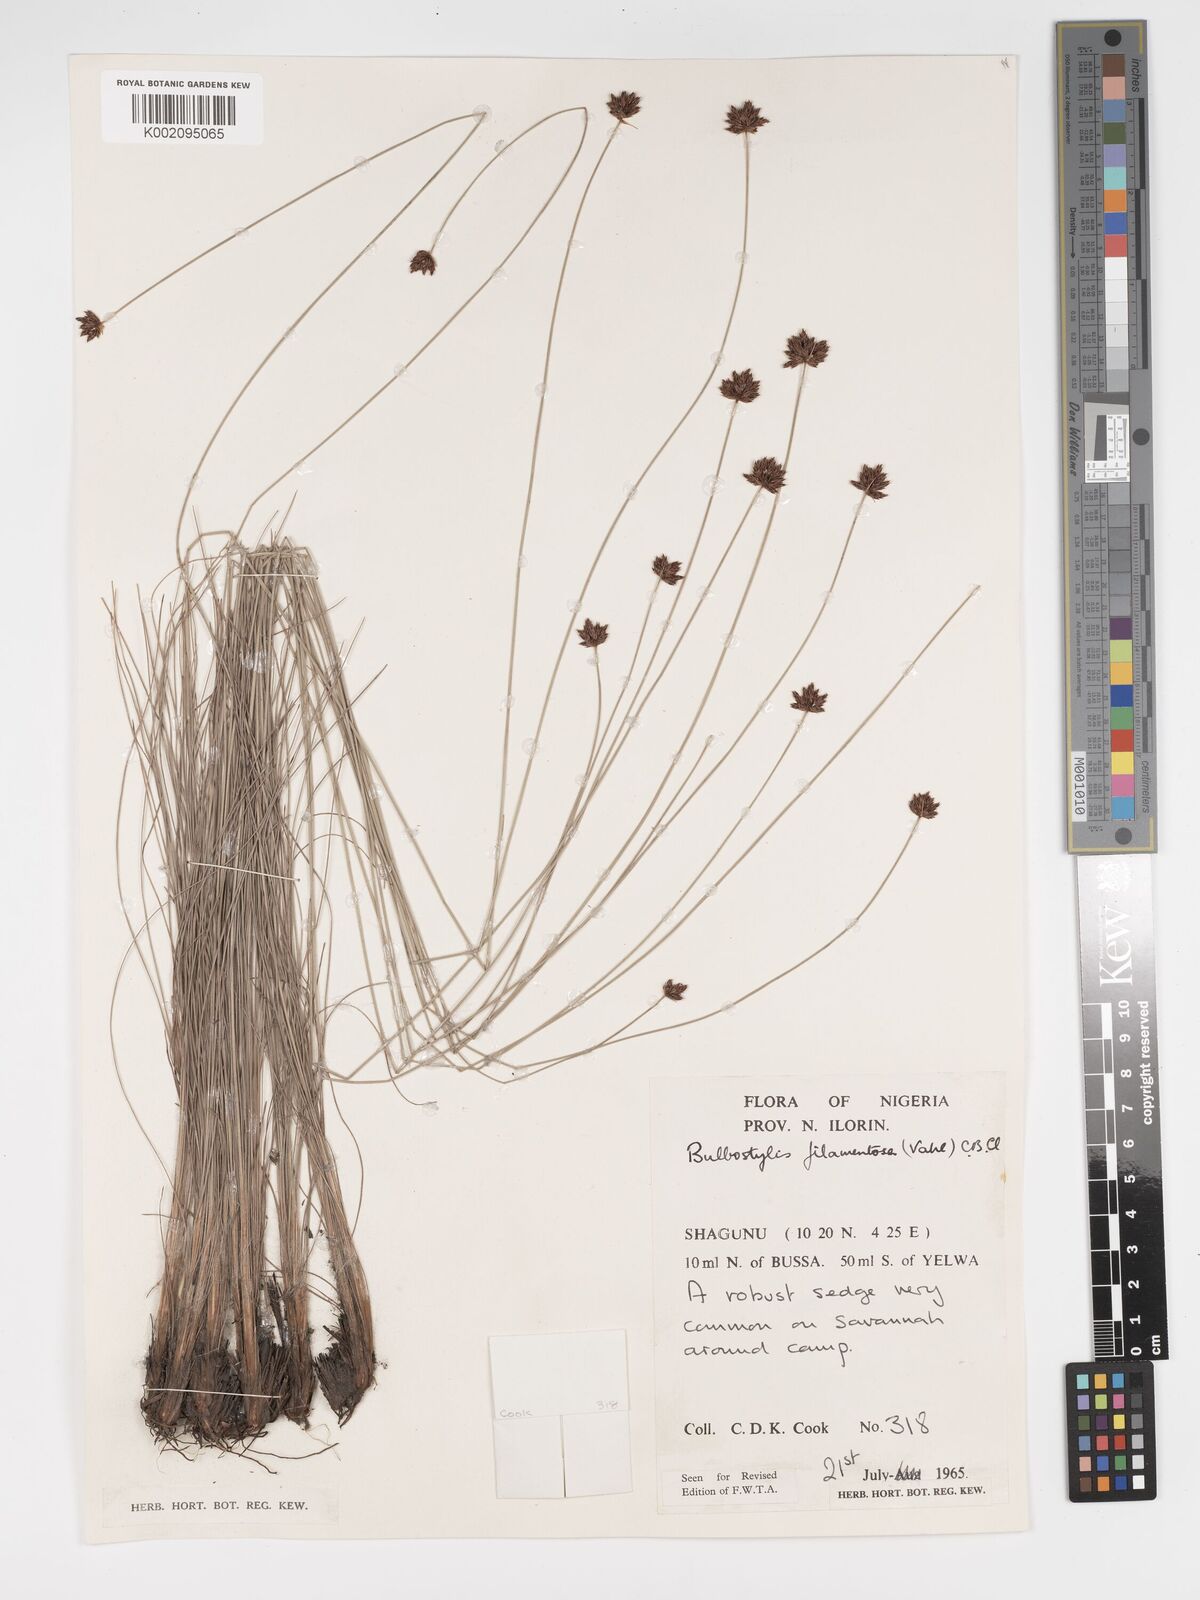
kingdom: Plantae
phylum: Tracheophyta
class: Liliopsida
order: Poales
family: Cyperaceae
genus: Bulbostylis
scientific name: Bulbostylis scabricaulis
